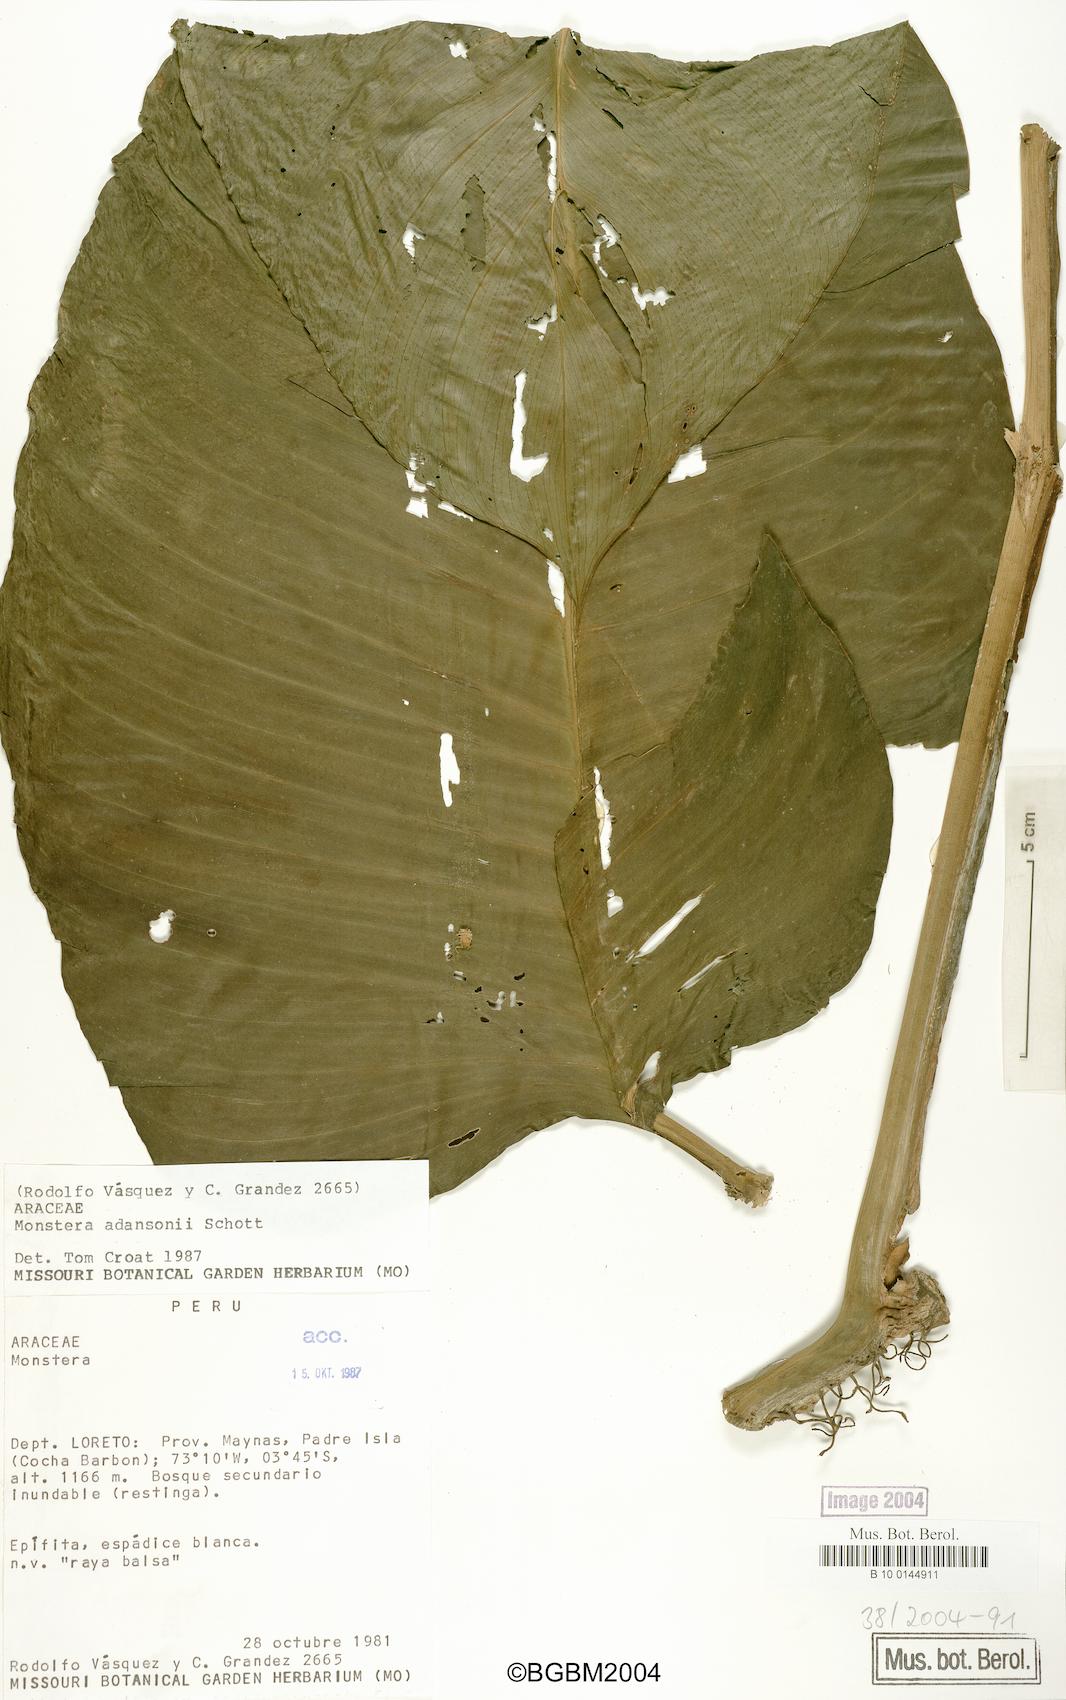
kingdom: Plantae
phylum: Tracheophyta
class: Liliopsida
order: Alismatales
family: Araceae
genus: Monstera
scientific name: Monstera adansonii
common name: Tarovine
